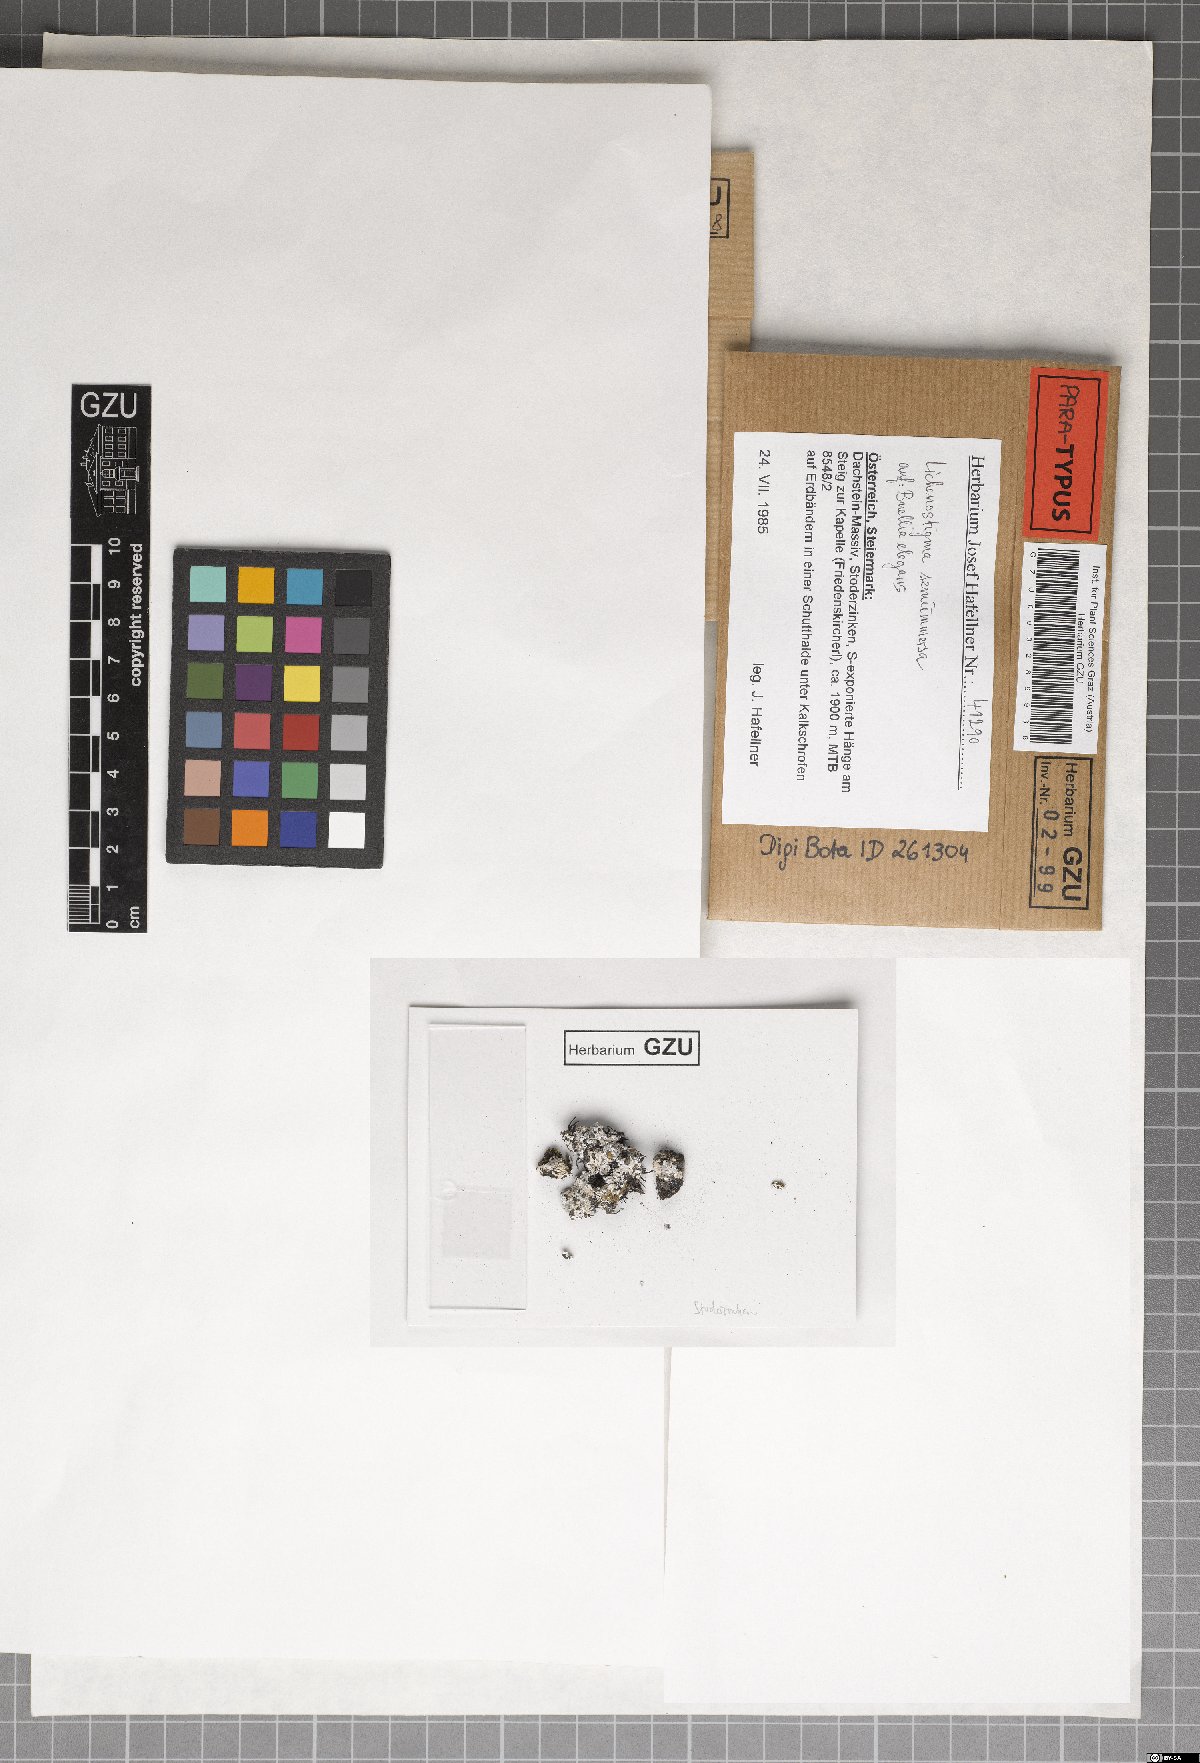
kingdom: Fungi
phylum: Ascomycota
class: Dothideomycetes
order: Lichenotheliales
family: Lichenotheliaceae
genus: Lichenostigma
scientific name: Lichenostigma semi-immersum
